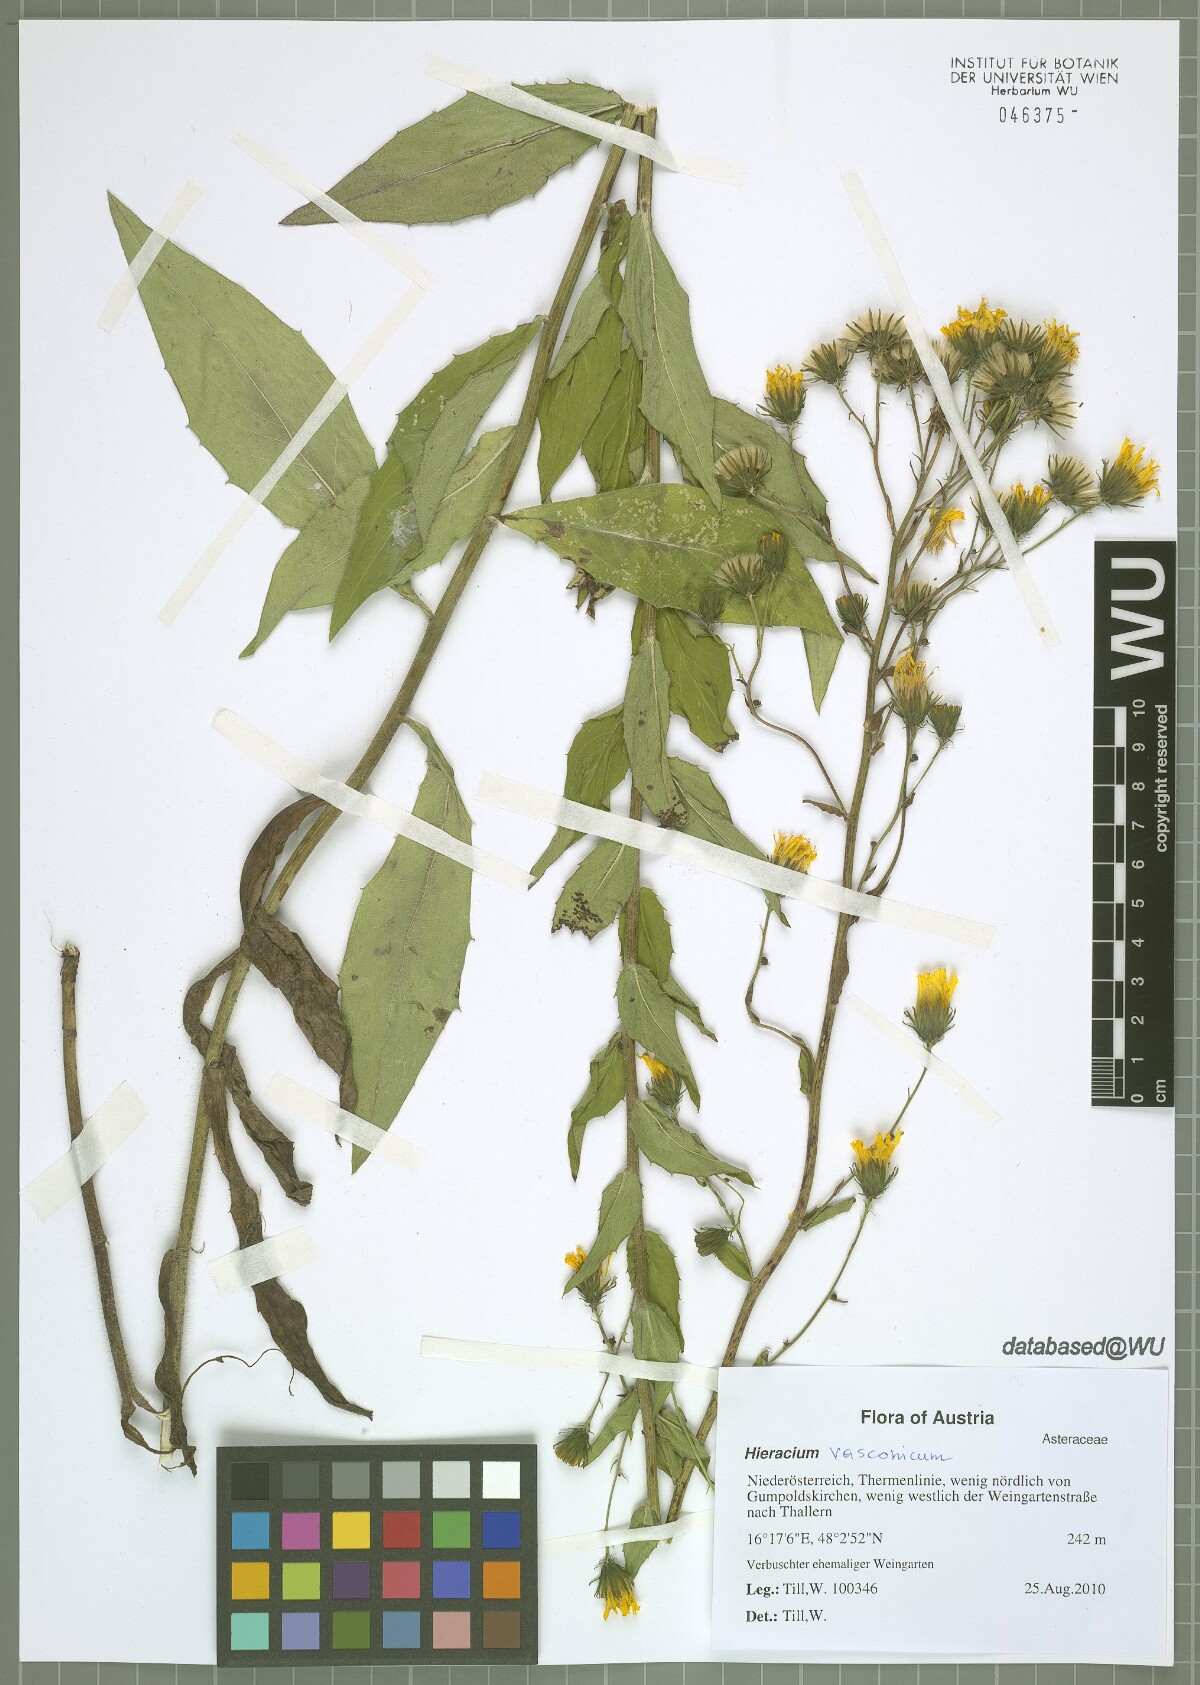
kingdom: Plantae
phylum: Tracheophyta
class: Magnoliopsida
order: Asterales
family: Asteraceae
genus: Hieracium
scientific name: Hieracium sabaudum
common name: New england hawkweed
